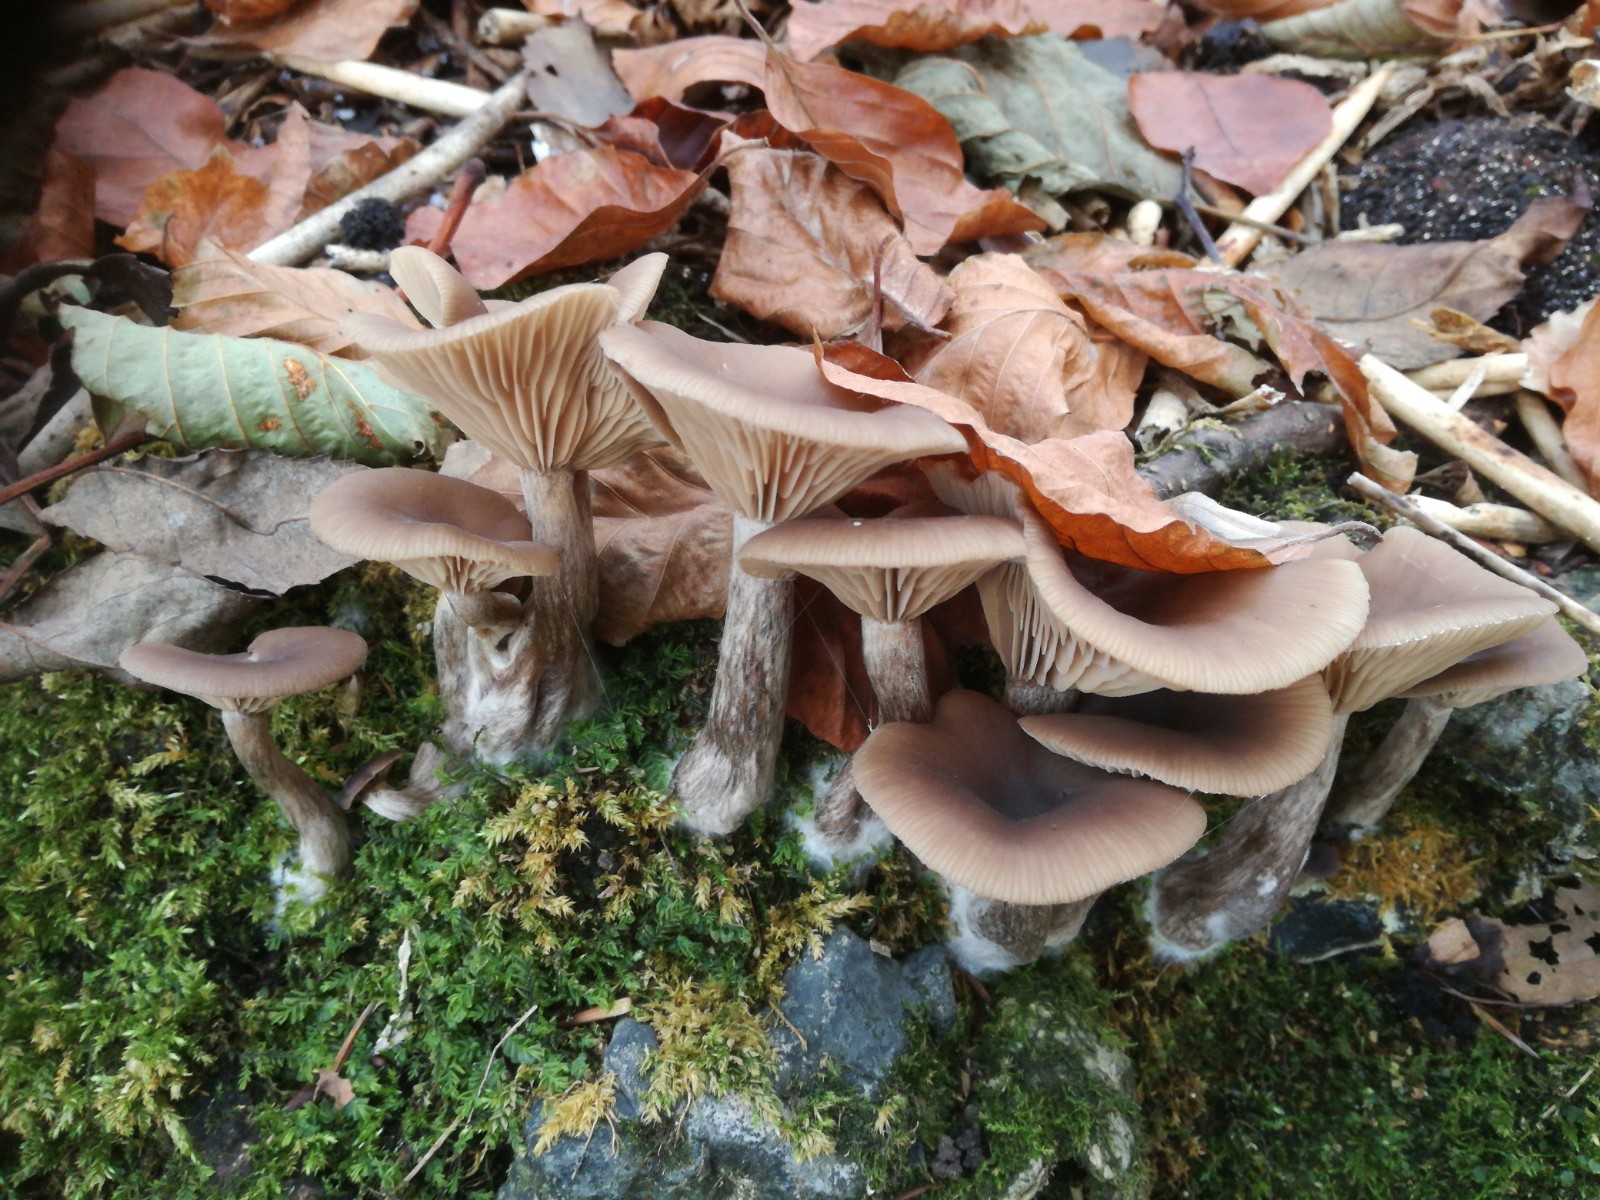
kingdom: Fungi
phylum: Basidiomycota
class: Agaricomycetes
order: Agaricales
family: Pseudoclitocybaceae
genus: Pseudoclitocybe
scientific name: Pseudoclitocybe cyathiformis
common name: almindelig bægertragthat
